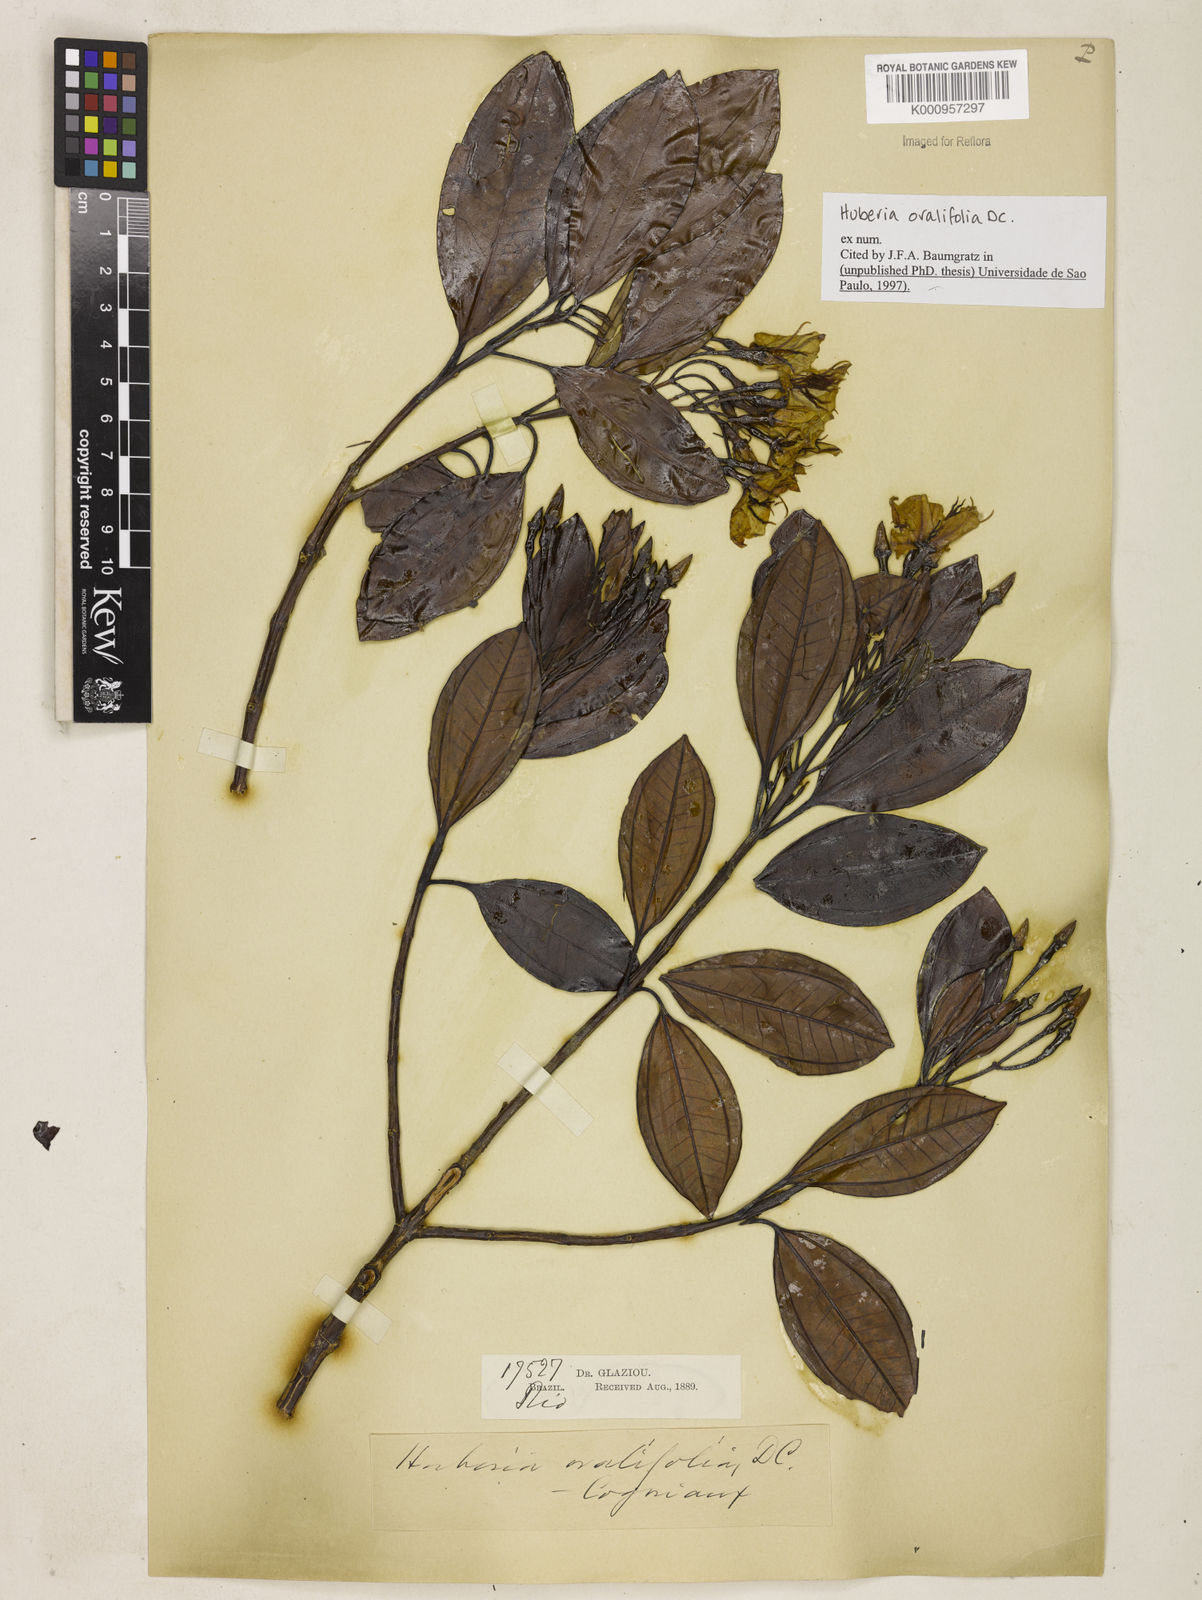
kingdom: Plantae
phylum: Tracheophyta
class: Magnoliopsida
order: Myrtales
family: Melastomataceae
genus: Huberia
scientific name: Huberia ovalifolia
